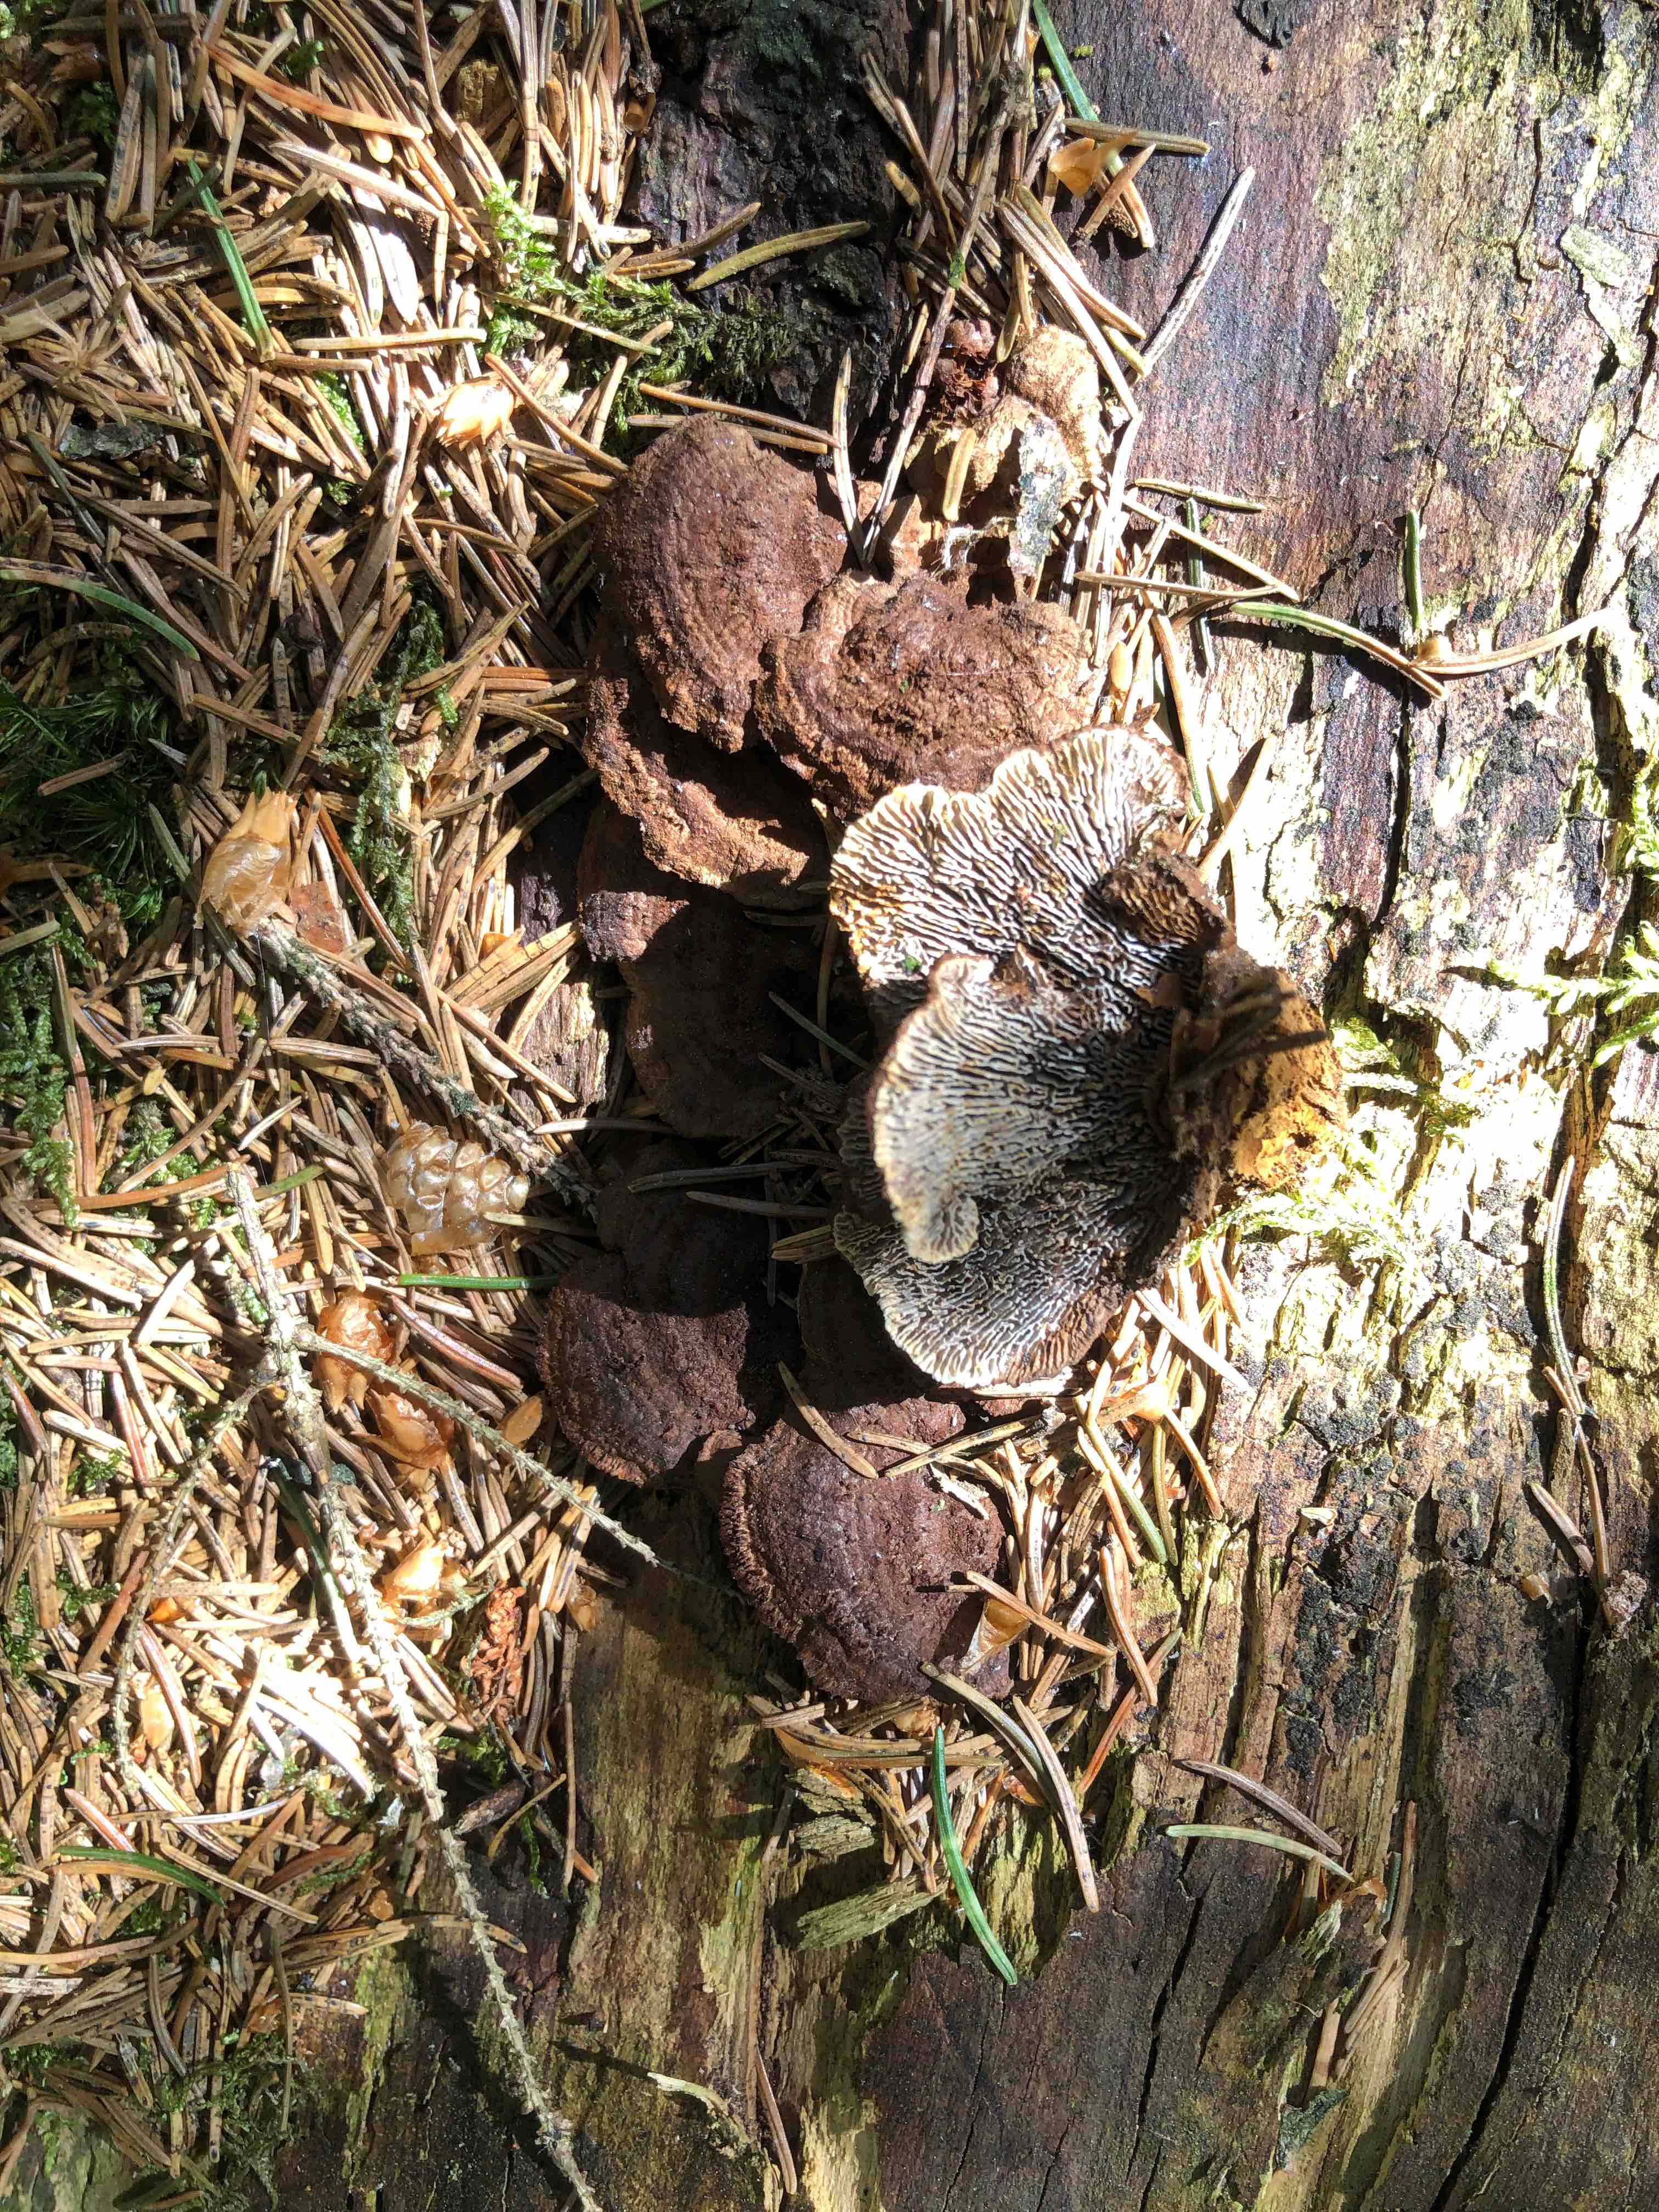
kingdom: Fungi
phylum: Basidiomycota
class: Agaricomycetes
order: Gloeophyllales
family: Gloeophyllaceae
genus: Gloeophyllum
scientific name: Gloeophyllum sepiarium
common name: fyrre-korkhat
